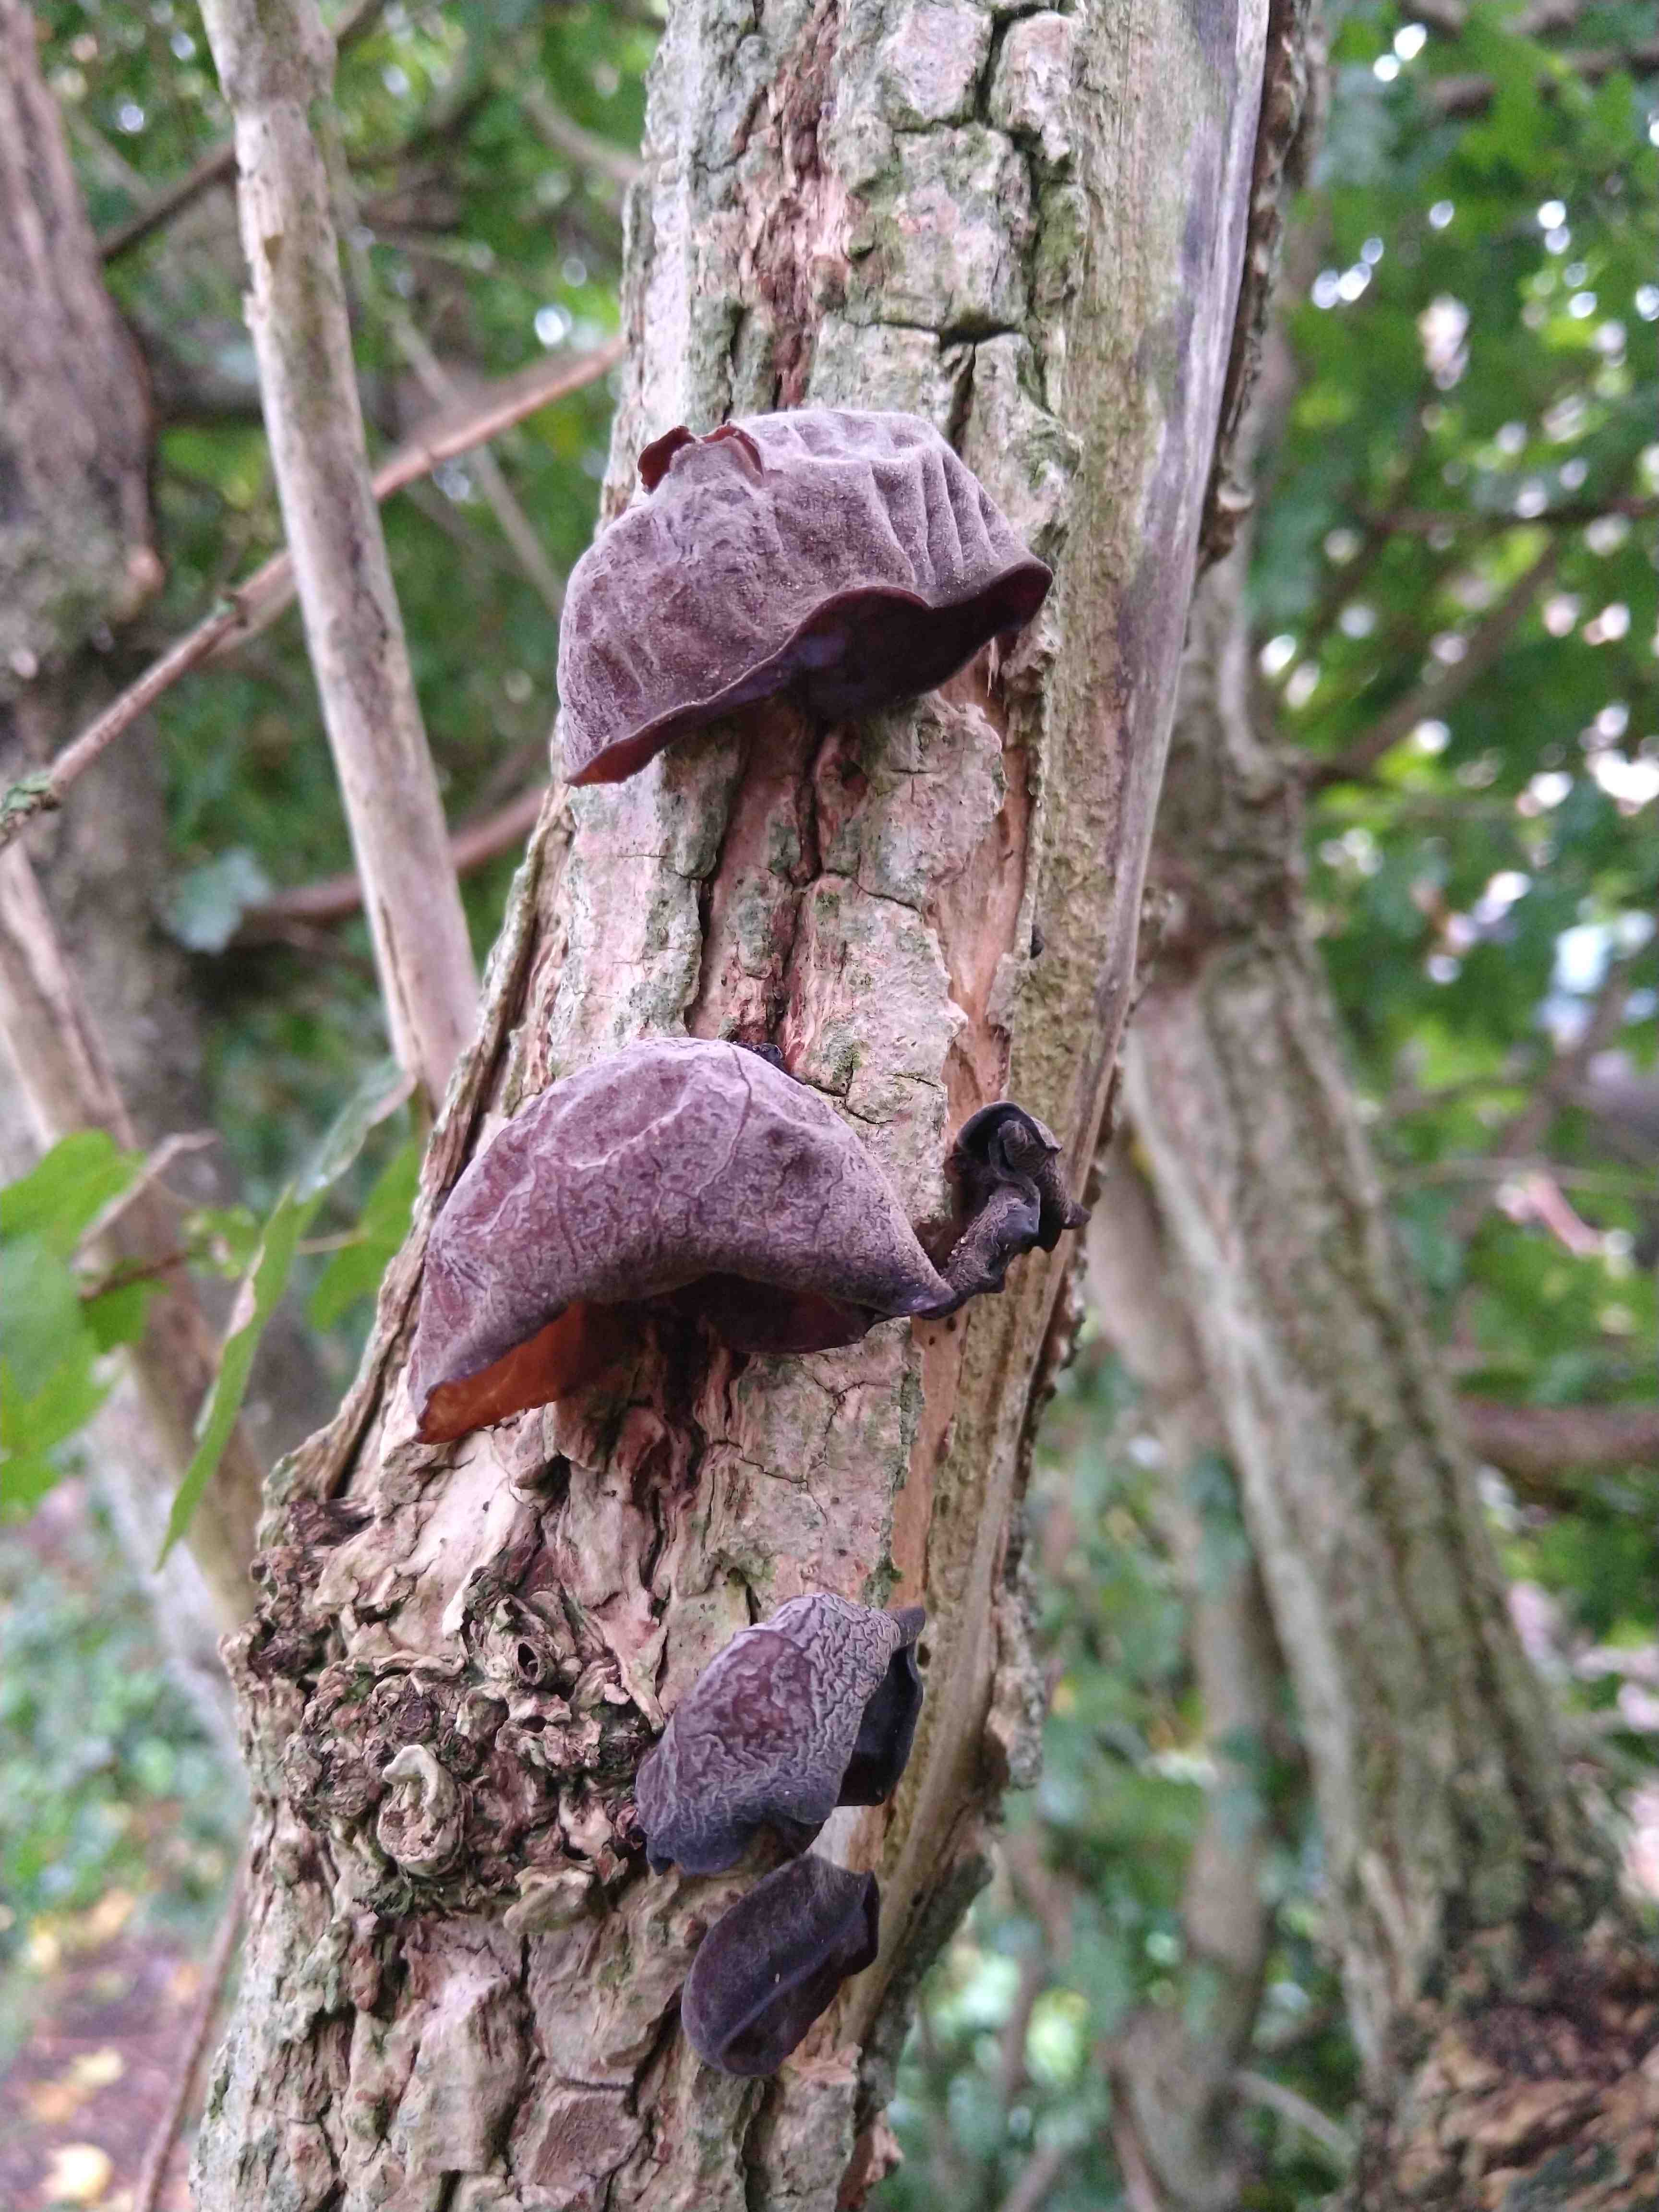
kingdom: Fungi
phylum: Basidiomycota
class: Agaricomycetes
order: Auriculariales
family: Auriculariaceae
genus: Auricularia
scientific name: Auricularia auricula-judae
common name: almindelig judasøre
